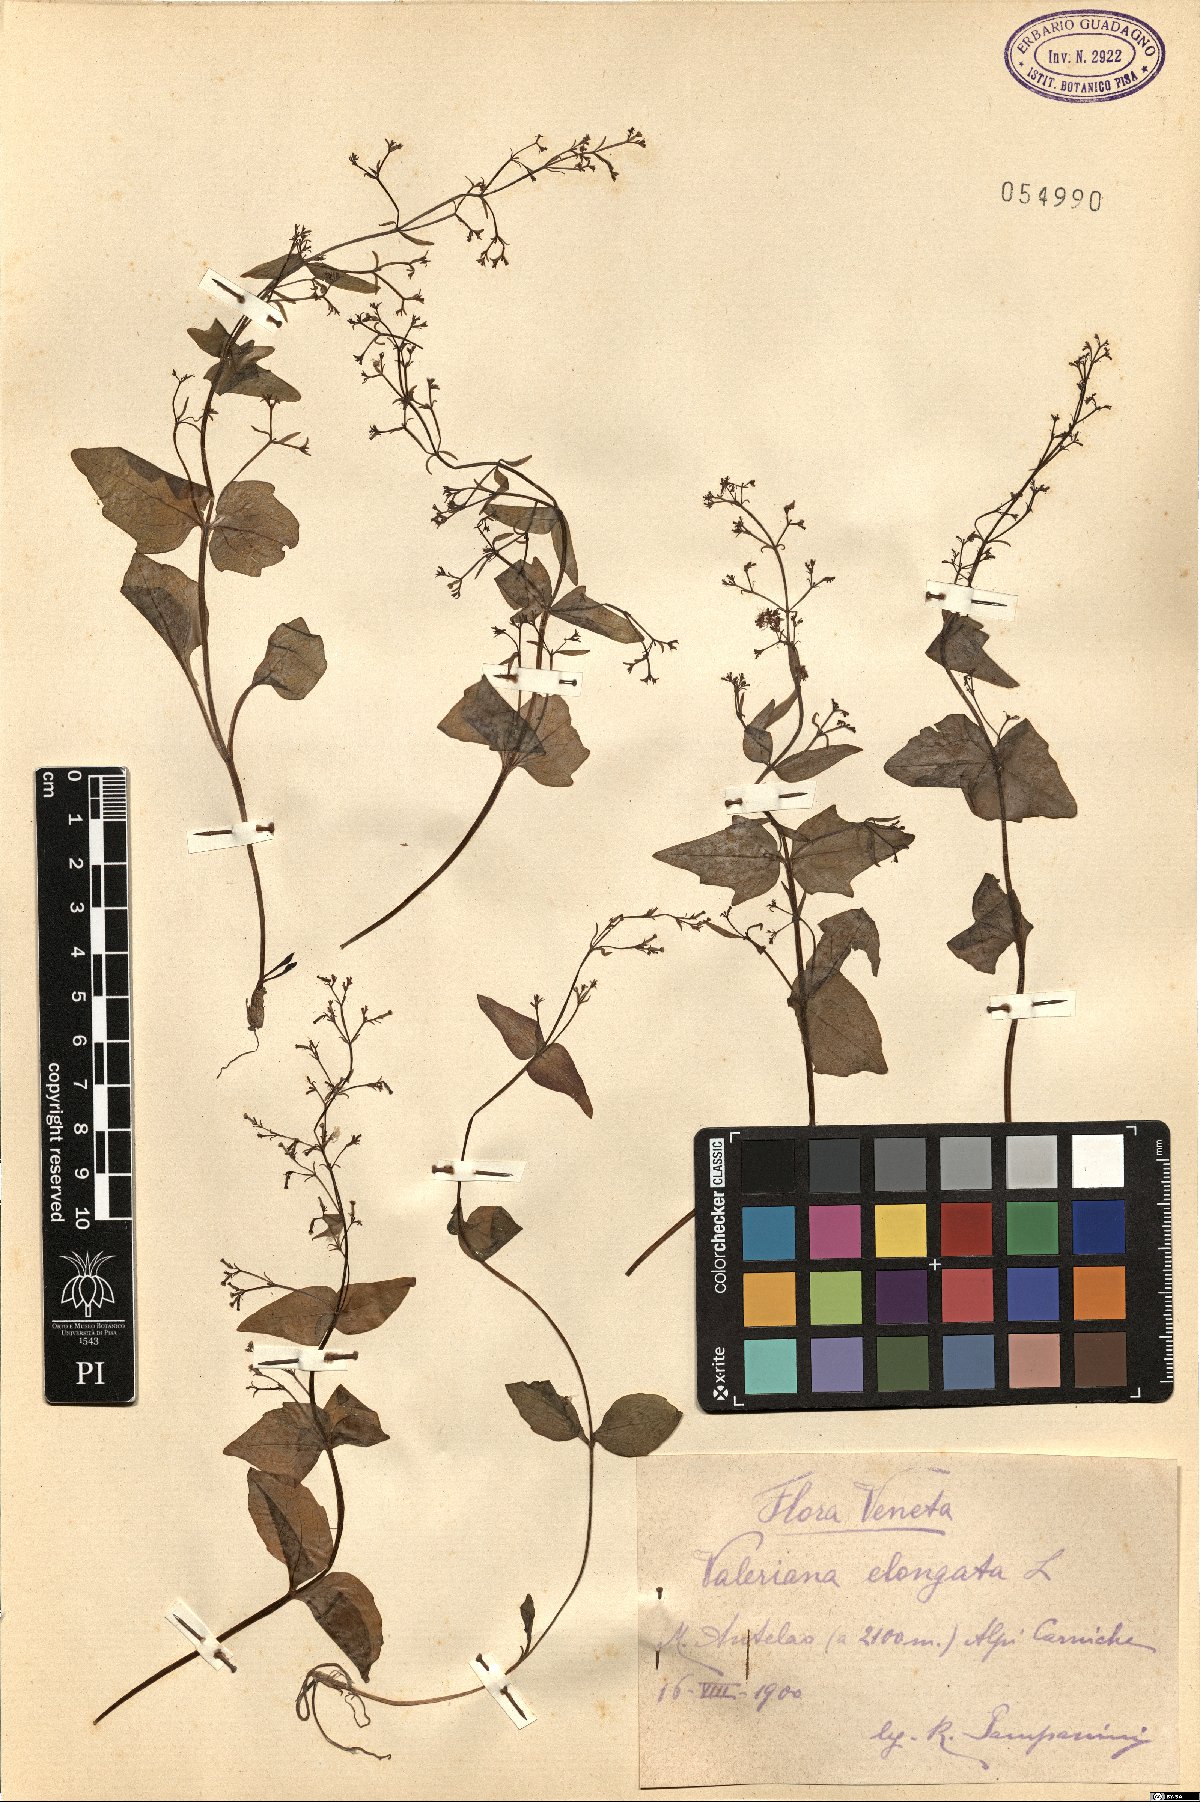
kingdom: Plantae
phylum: Tracheophyta
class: Magnoliopsida
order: Dipsacales
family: Caprifoliaceae
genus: Valeriana
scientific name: Valeriana elongata
